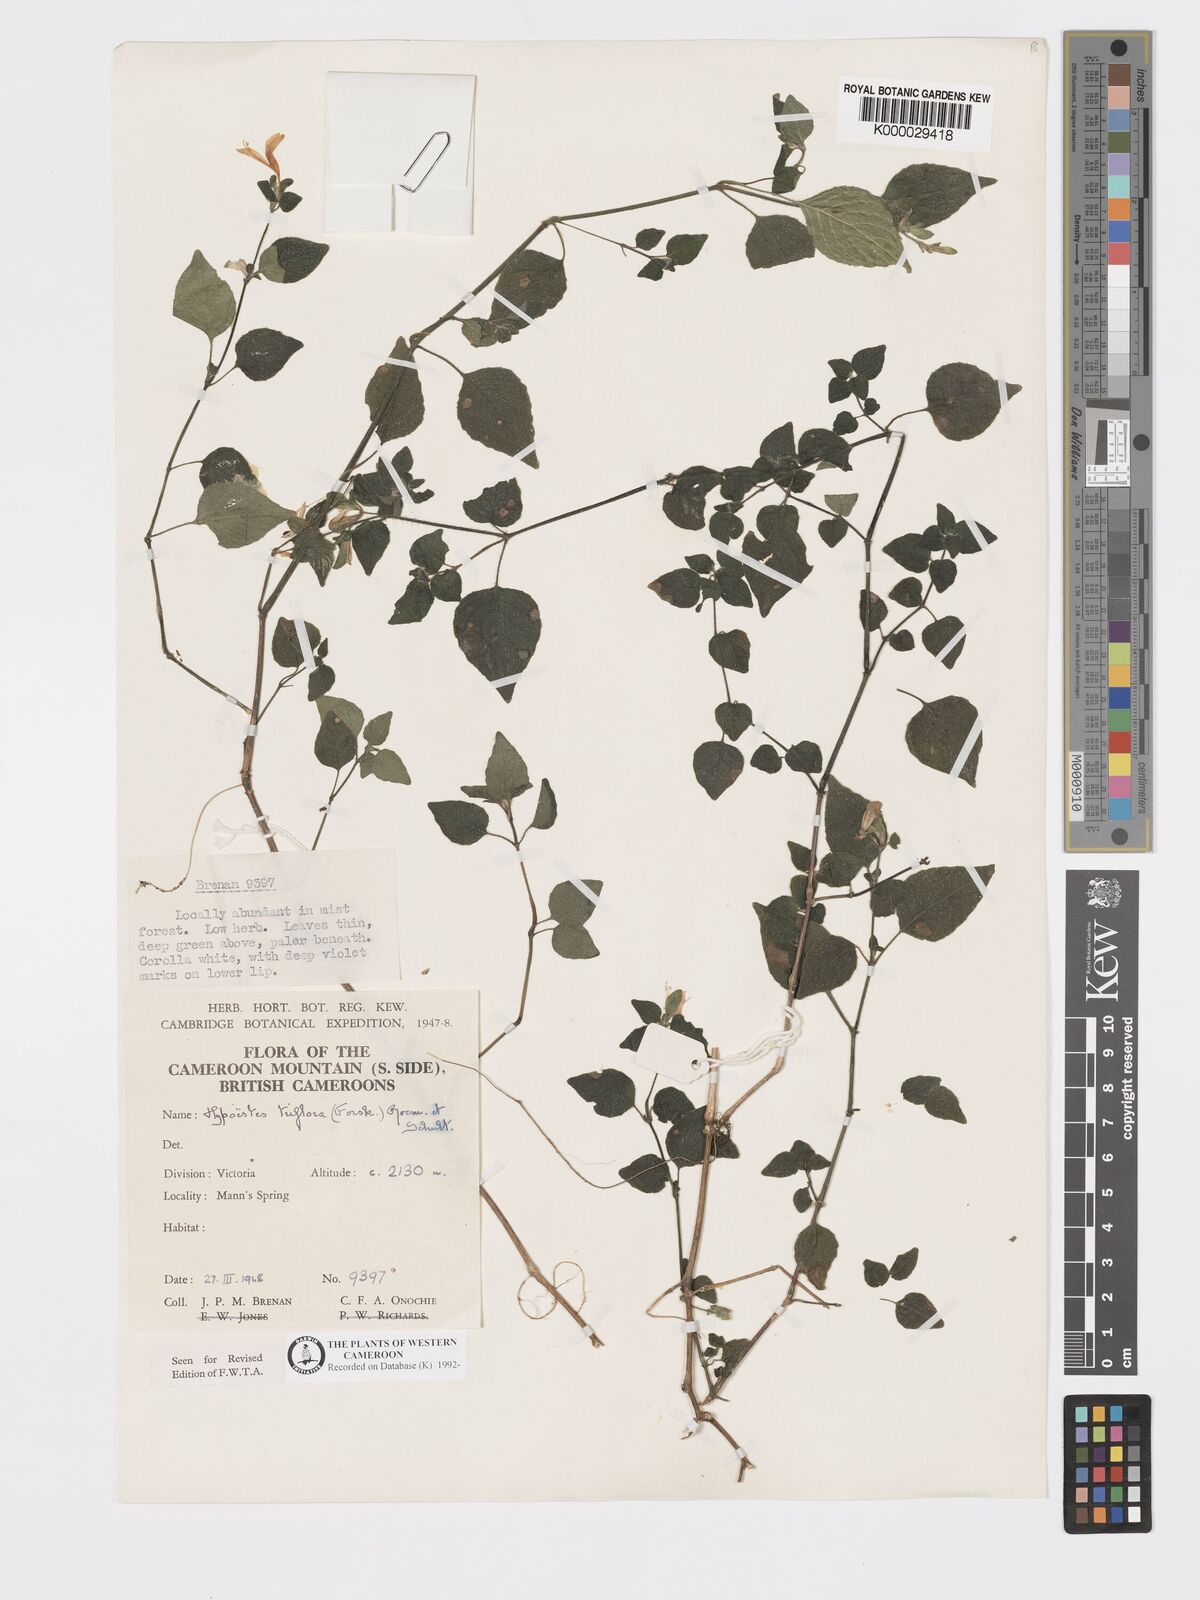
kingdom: Plantae
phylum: Tracheophyta
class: Magnoliopsida
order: Lamiales
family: Acanthaceae
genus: Hypoestes
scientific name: Hypoestes triflora
